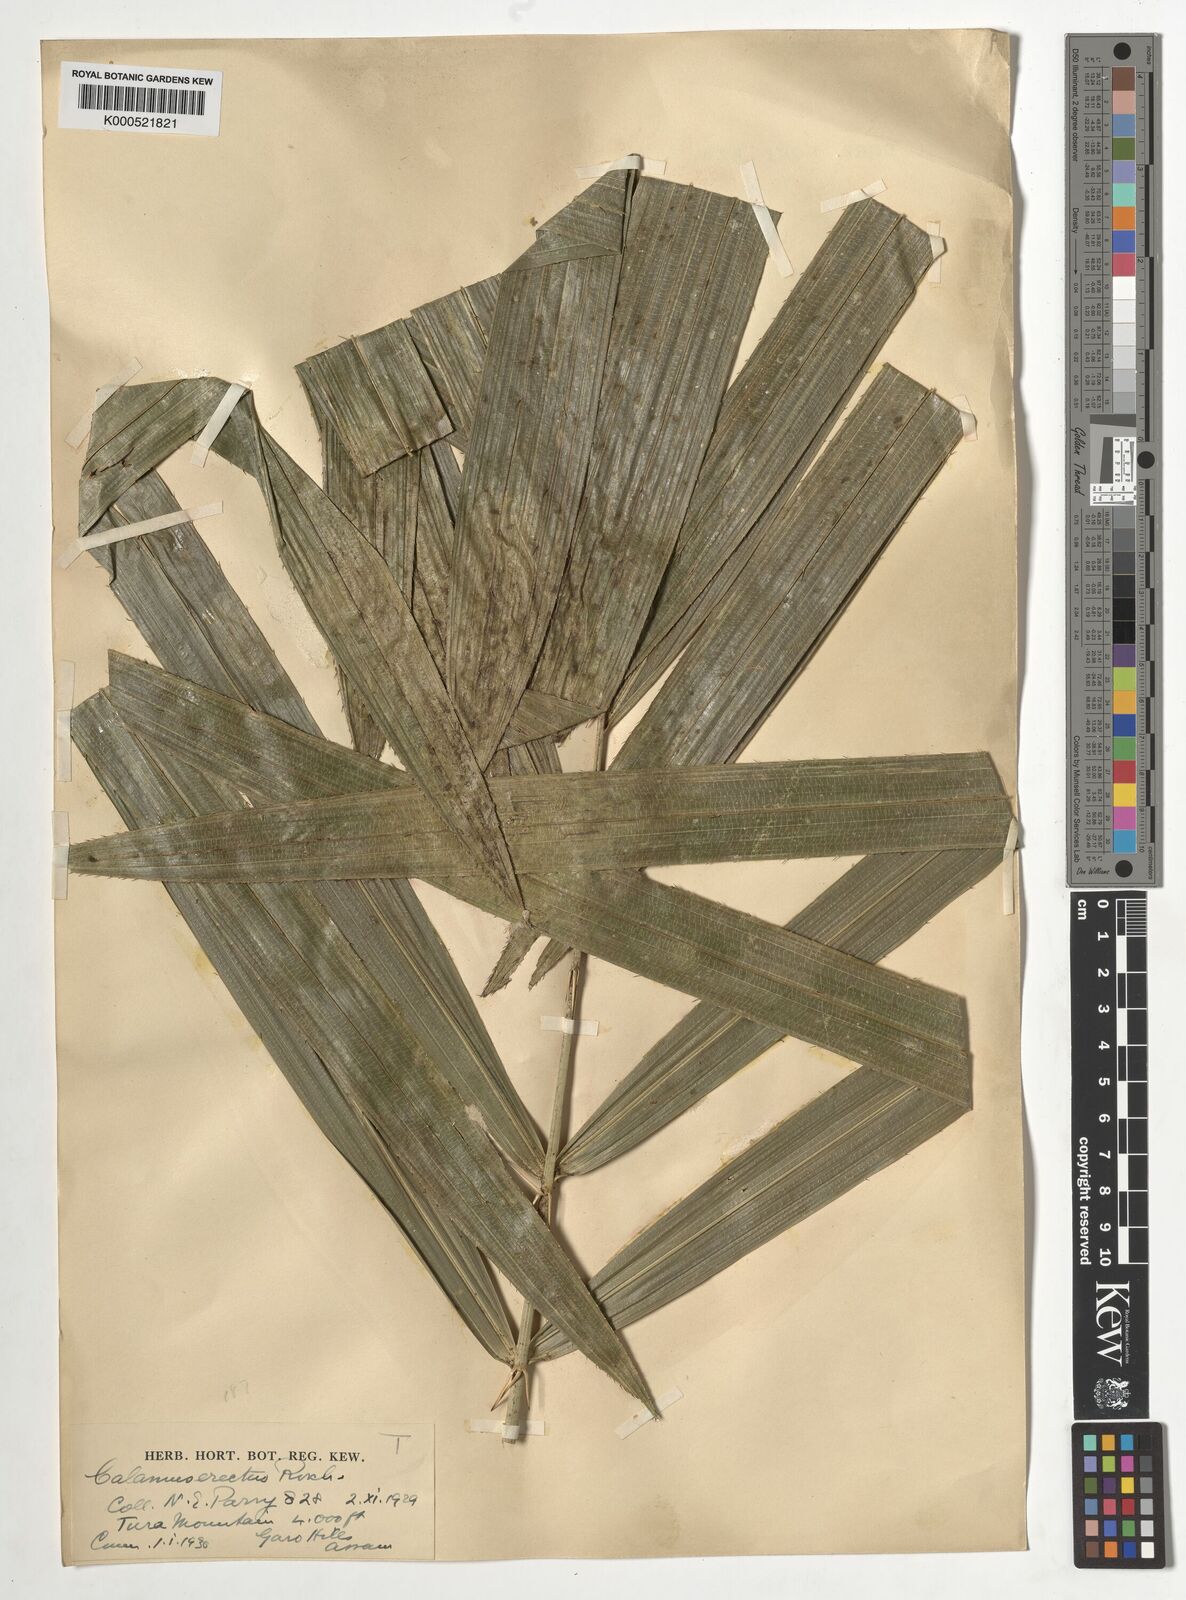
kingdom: Plantae
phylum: Tracheophyta
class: Liliopsida
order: Arecales
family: Arecaceae
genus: Calamus
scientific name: Calamus erectus
